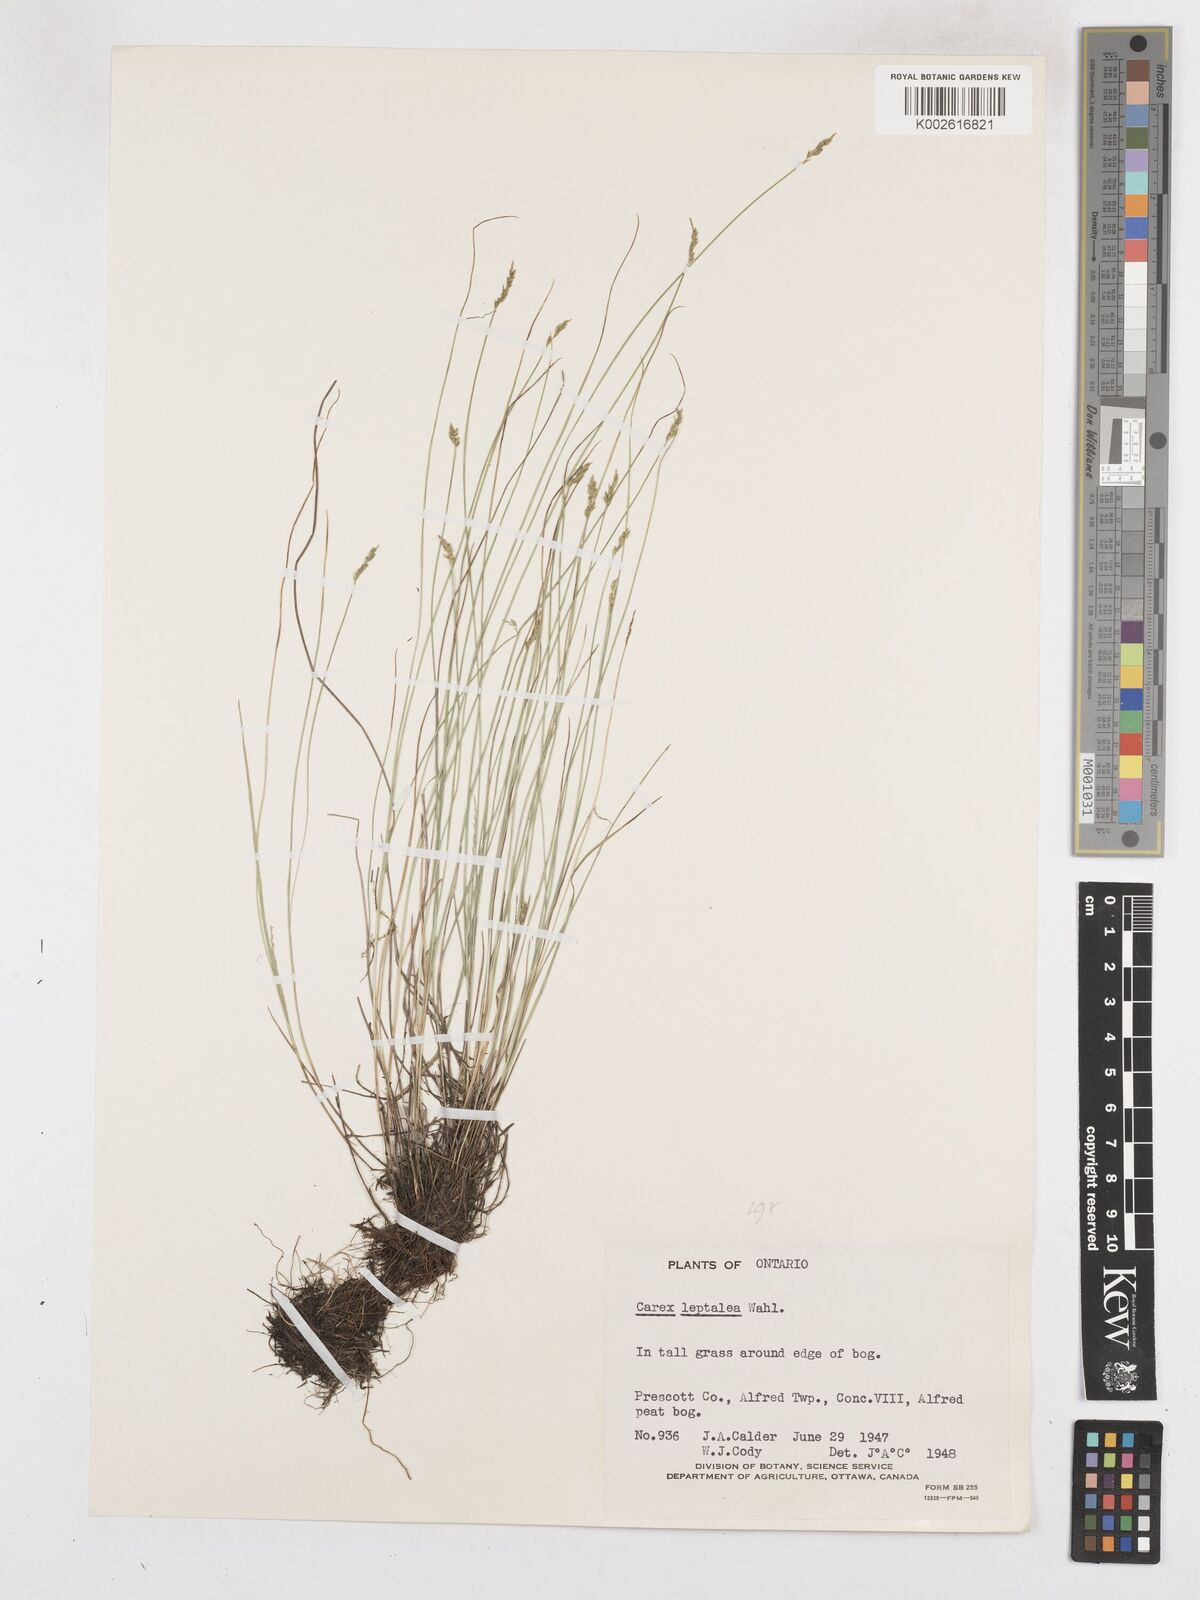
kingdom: Plantae
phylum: Tracheophyta
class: Liliopsida
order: Poales
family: Cyperaceae
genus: Carex
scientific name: Carex leptalea
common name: Bristly-stalked sedge
